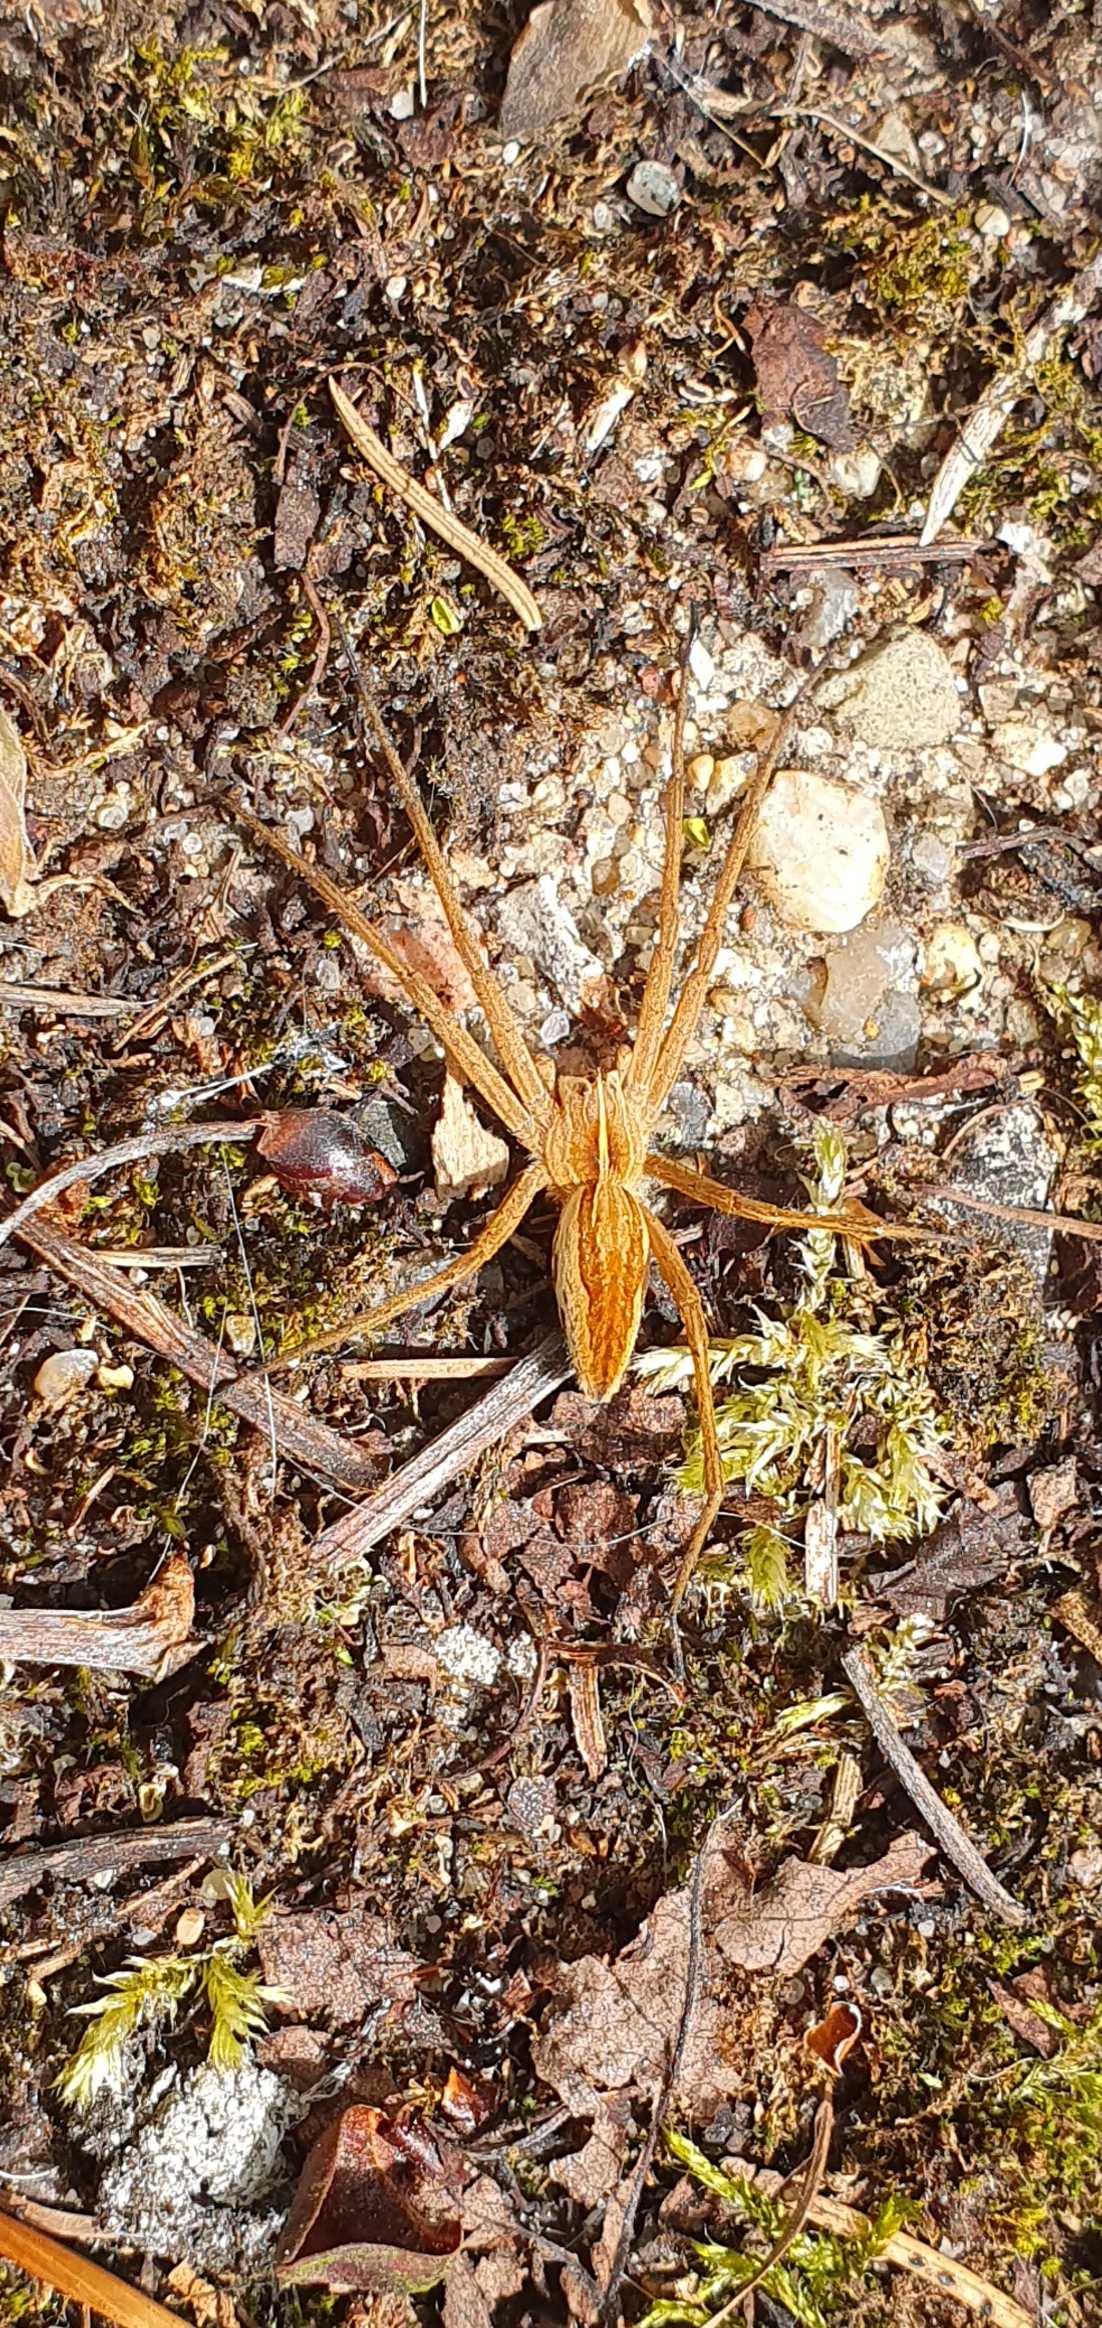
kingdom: Animalia
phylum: Arthropoda
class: Arachnida
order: Araneae
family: Pisauridae
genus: Pisaura
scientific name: Pisaura mirabilis
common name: Almindelig rovedderkop
